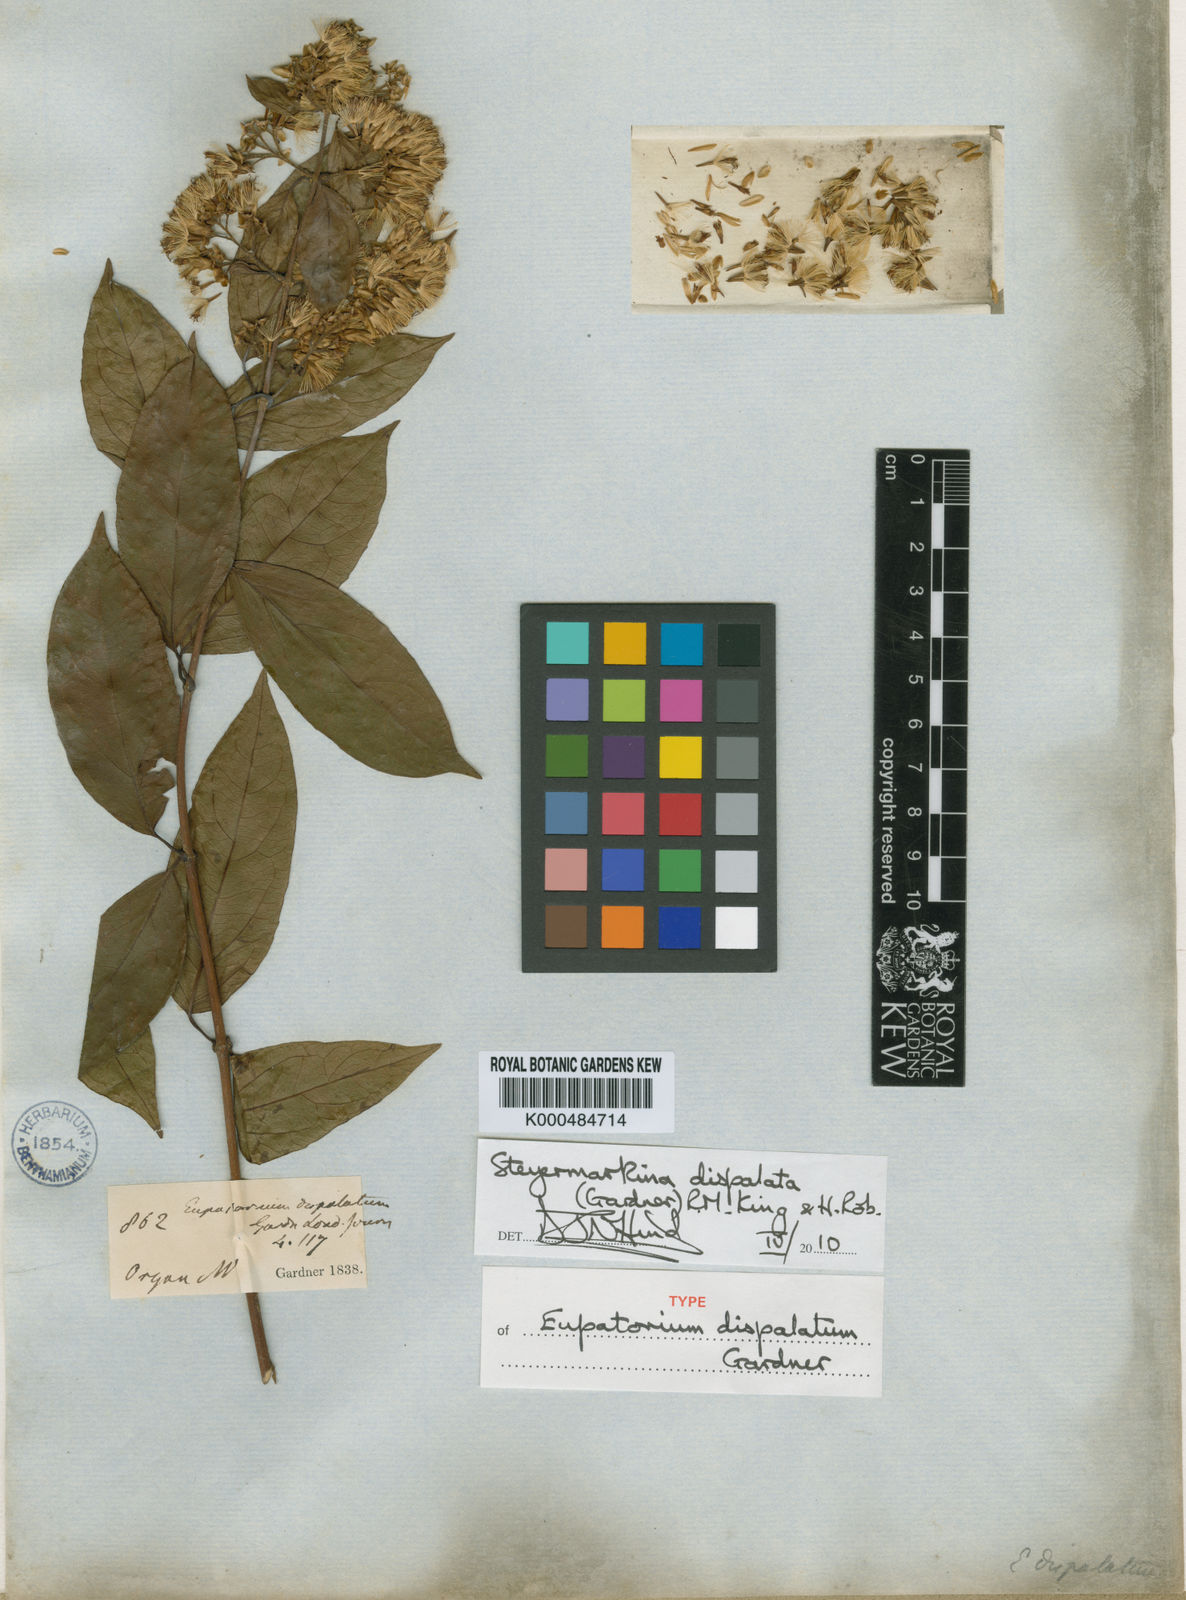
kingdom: Plantae
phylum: Tracheophyta
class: Magnoliopsida
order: Asterales
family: Asteraceae
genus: Steyermarkina
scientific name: Steyermarkina dispalata
